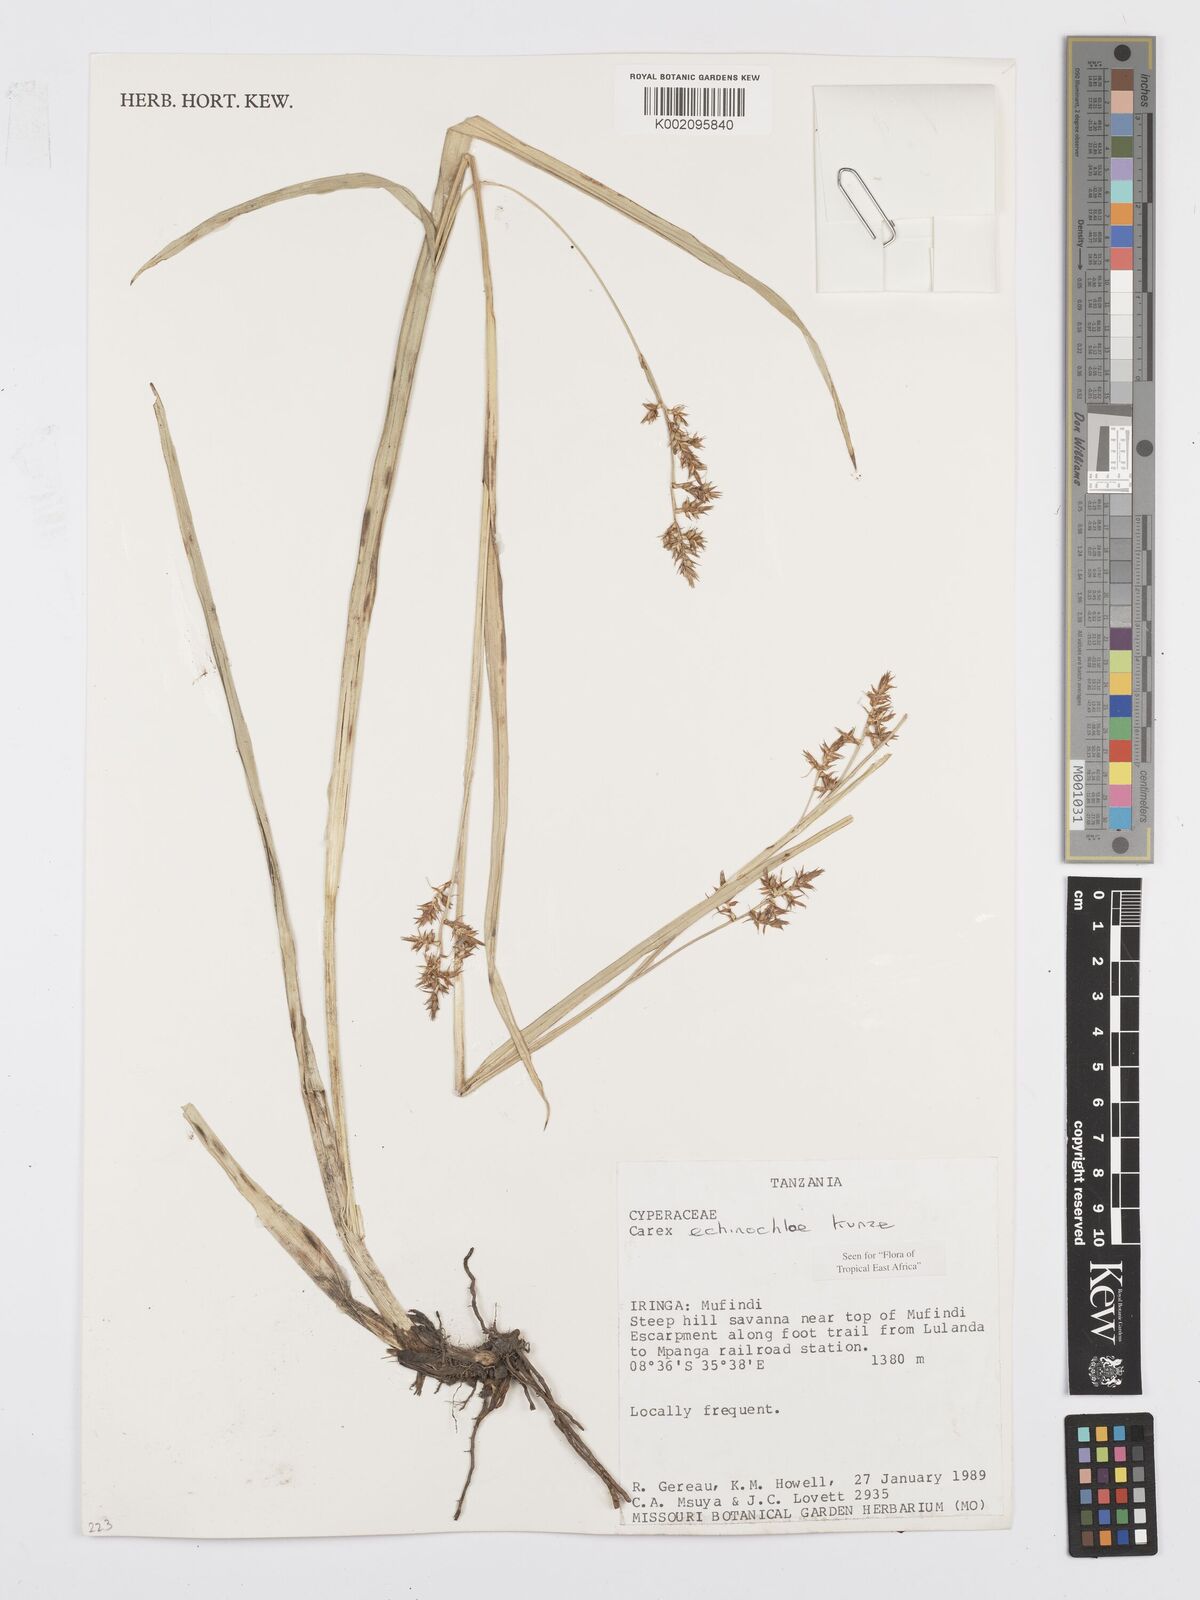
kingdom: Plantae
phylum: Tracheophyta
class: Liliopsida
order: Poales
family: Cyperaceae
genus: Carex
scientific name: Carex echinochloe
